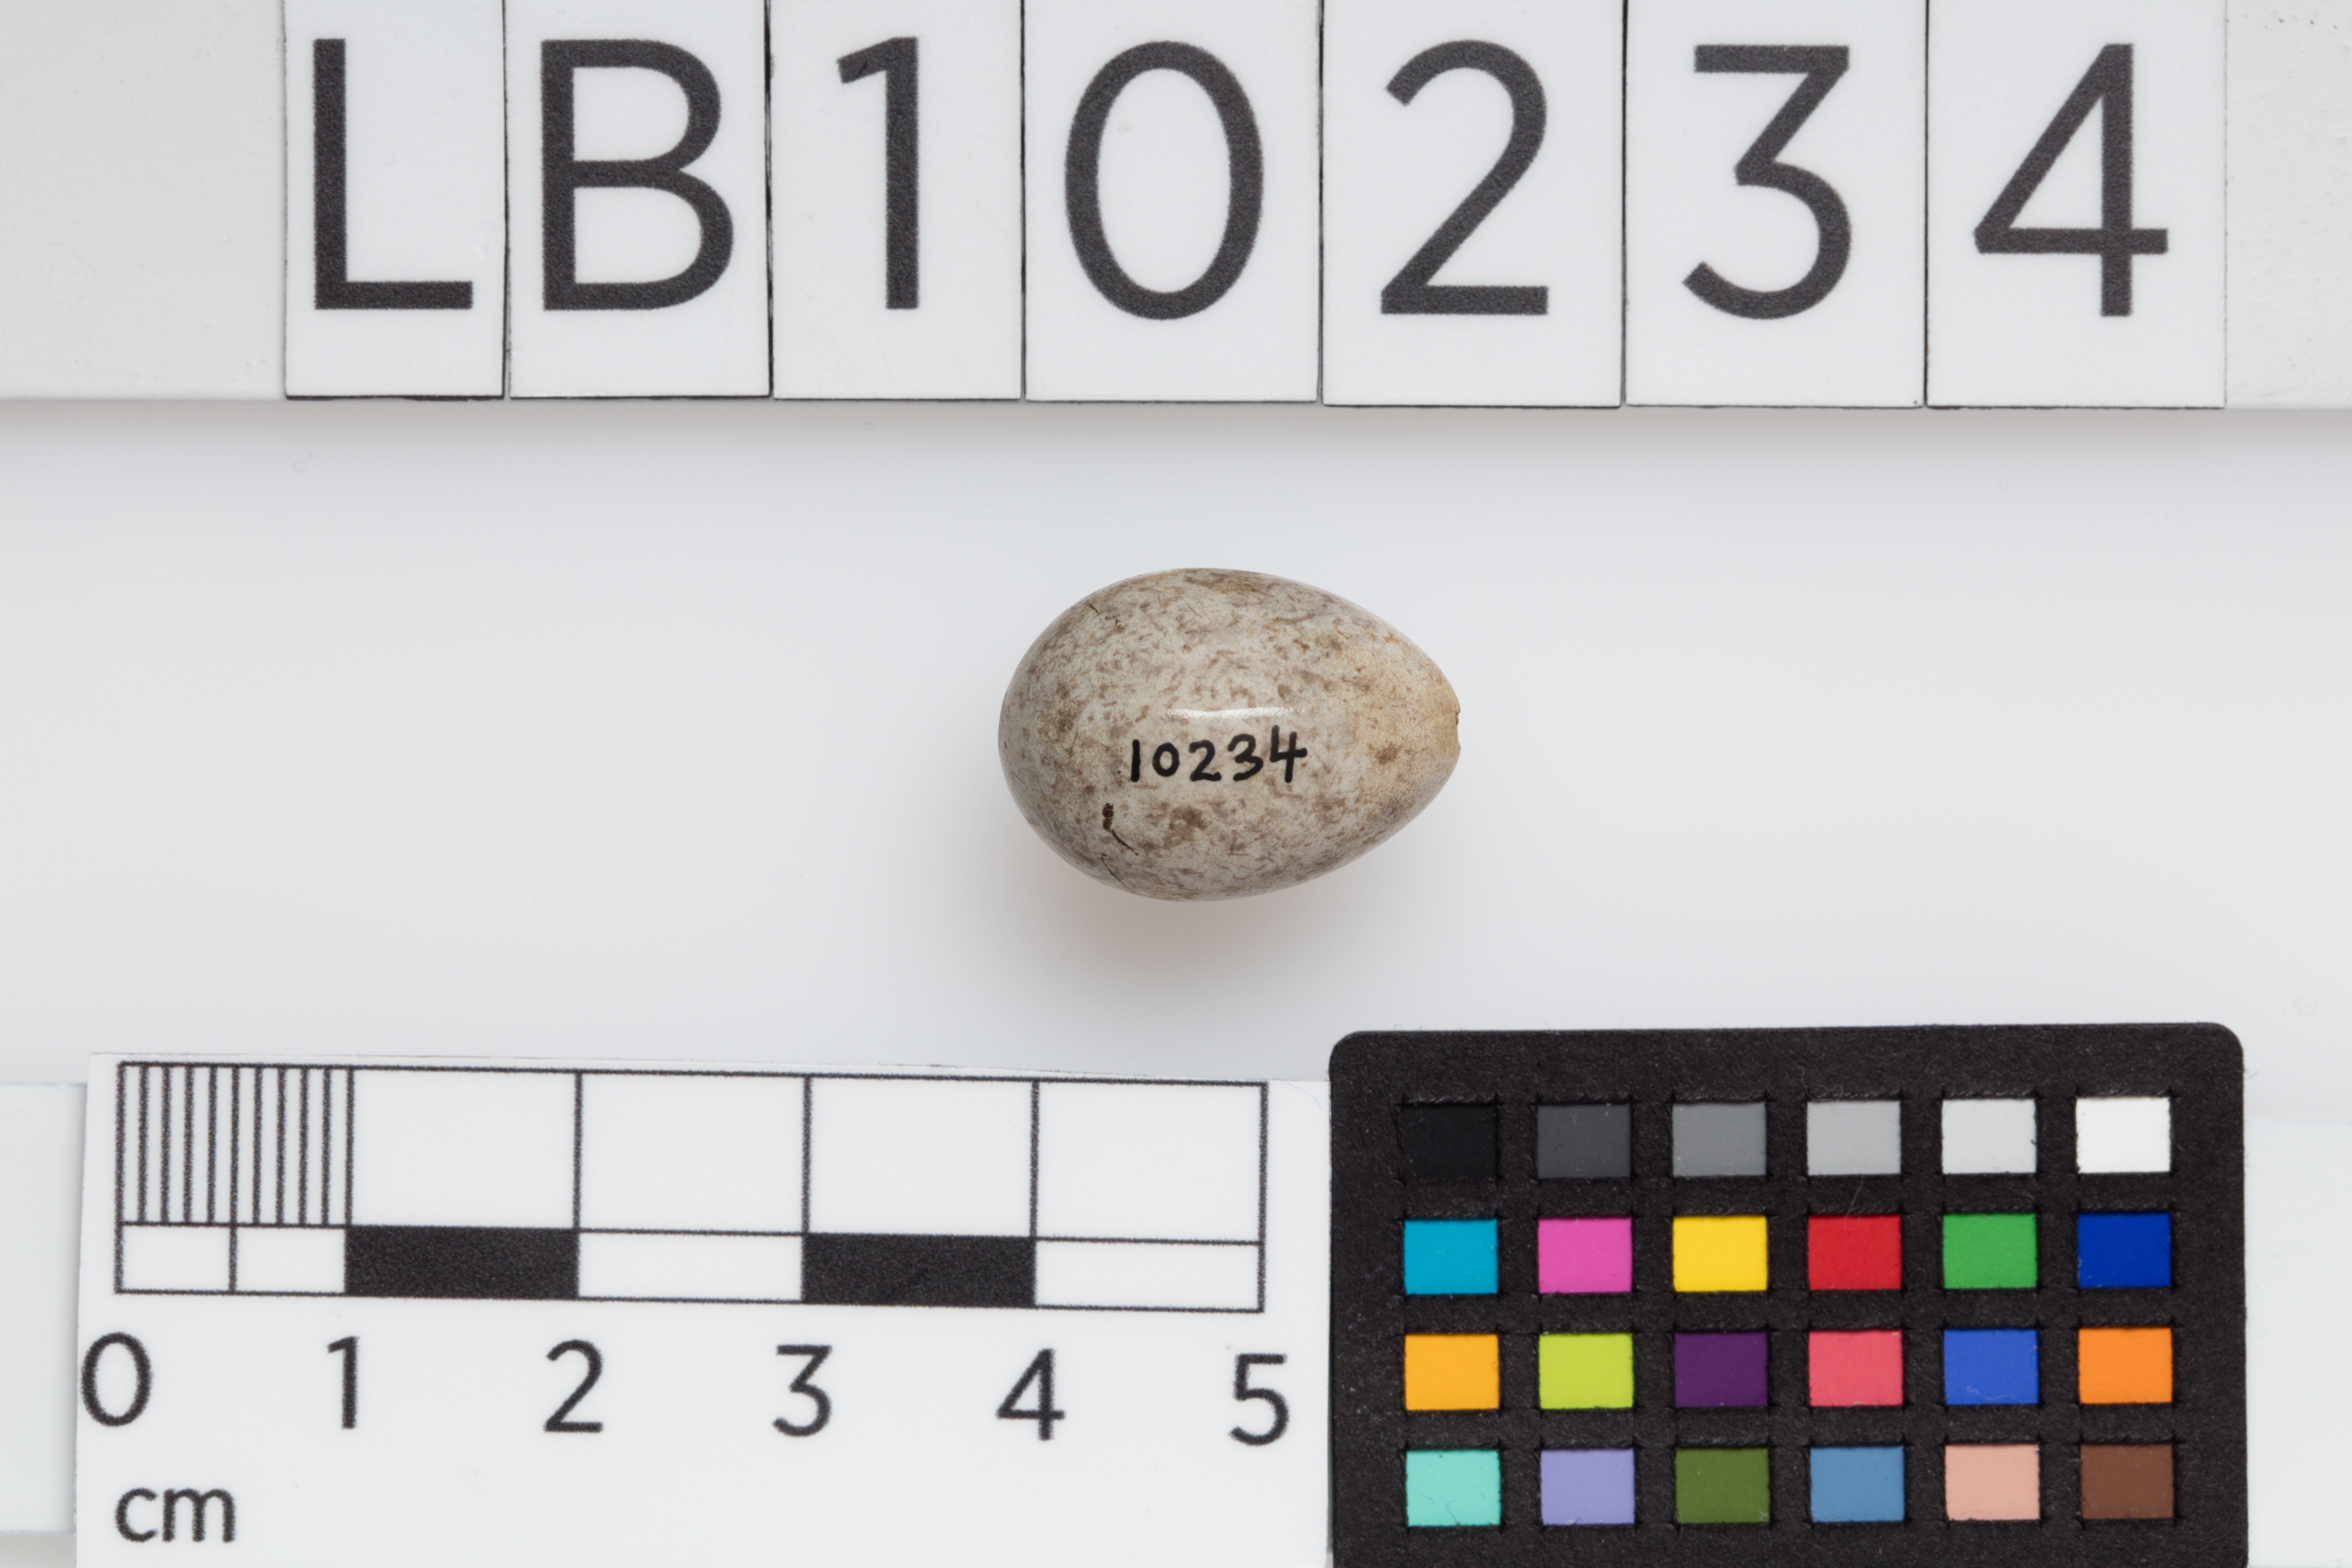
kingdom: Animalia
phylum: Chordata
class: Aves
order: Passeriformes
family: Passeridae
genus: Passer
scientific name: Passer montanus
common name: Eurasian tree sparrow
